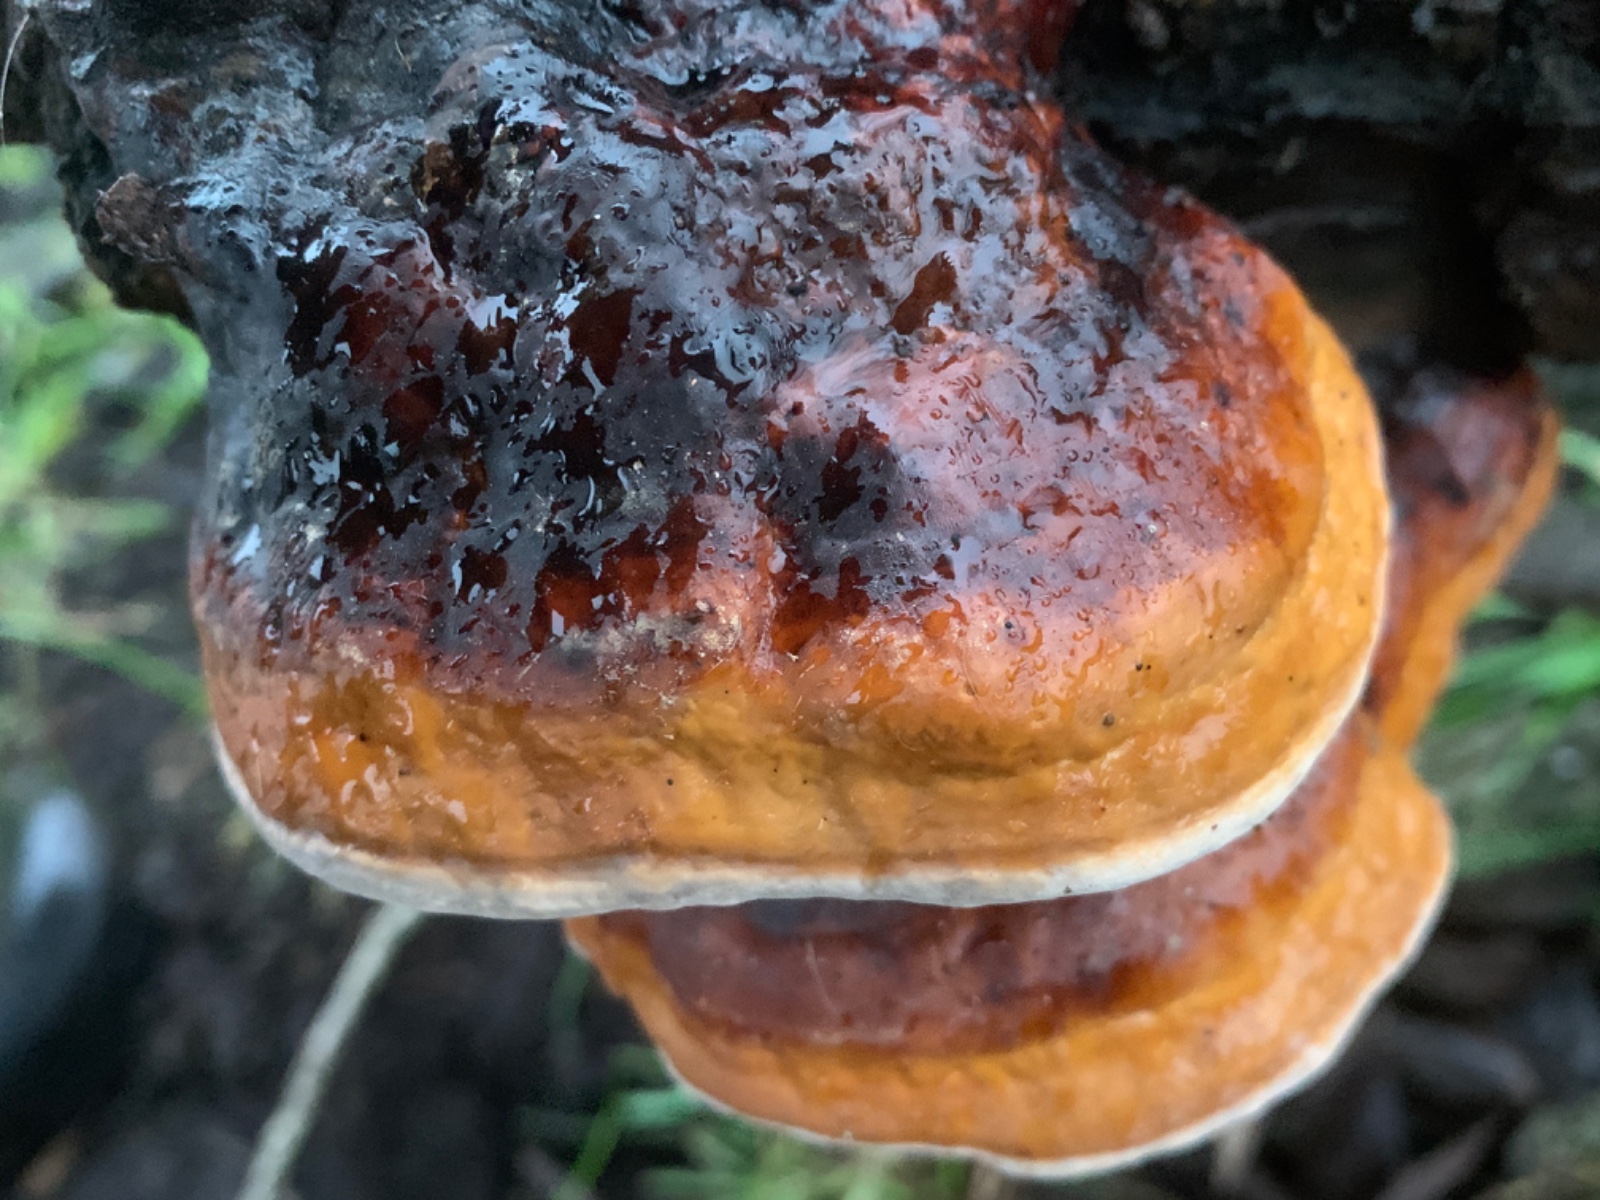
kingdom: Fungi
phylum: Basidiomycota
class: Agaricomycetes
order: Polyporales
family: Fomitopsidaceae
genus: Fomitopsis
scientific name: Fomitopsis pinicola
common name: randbæltet hovporesvamp
